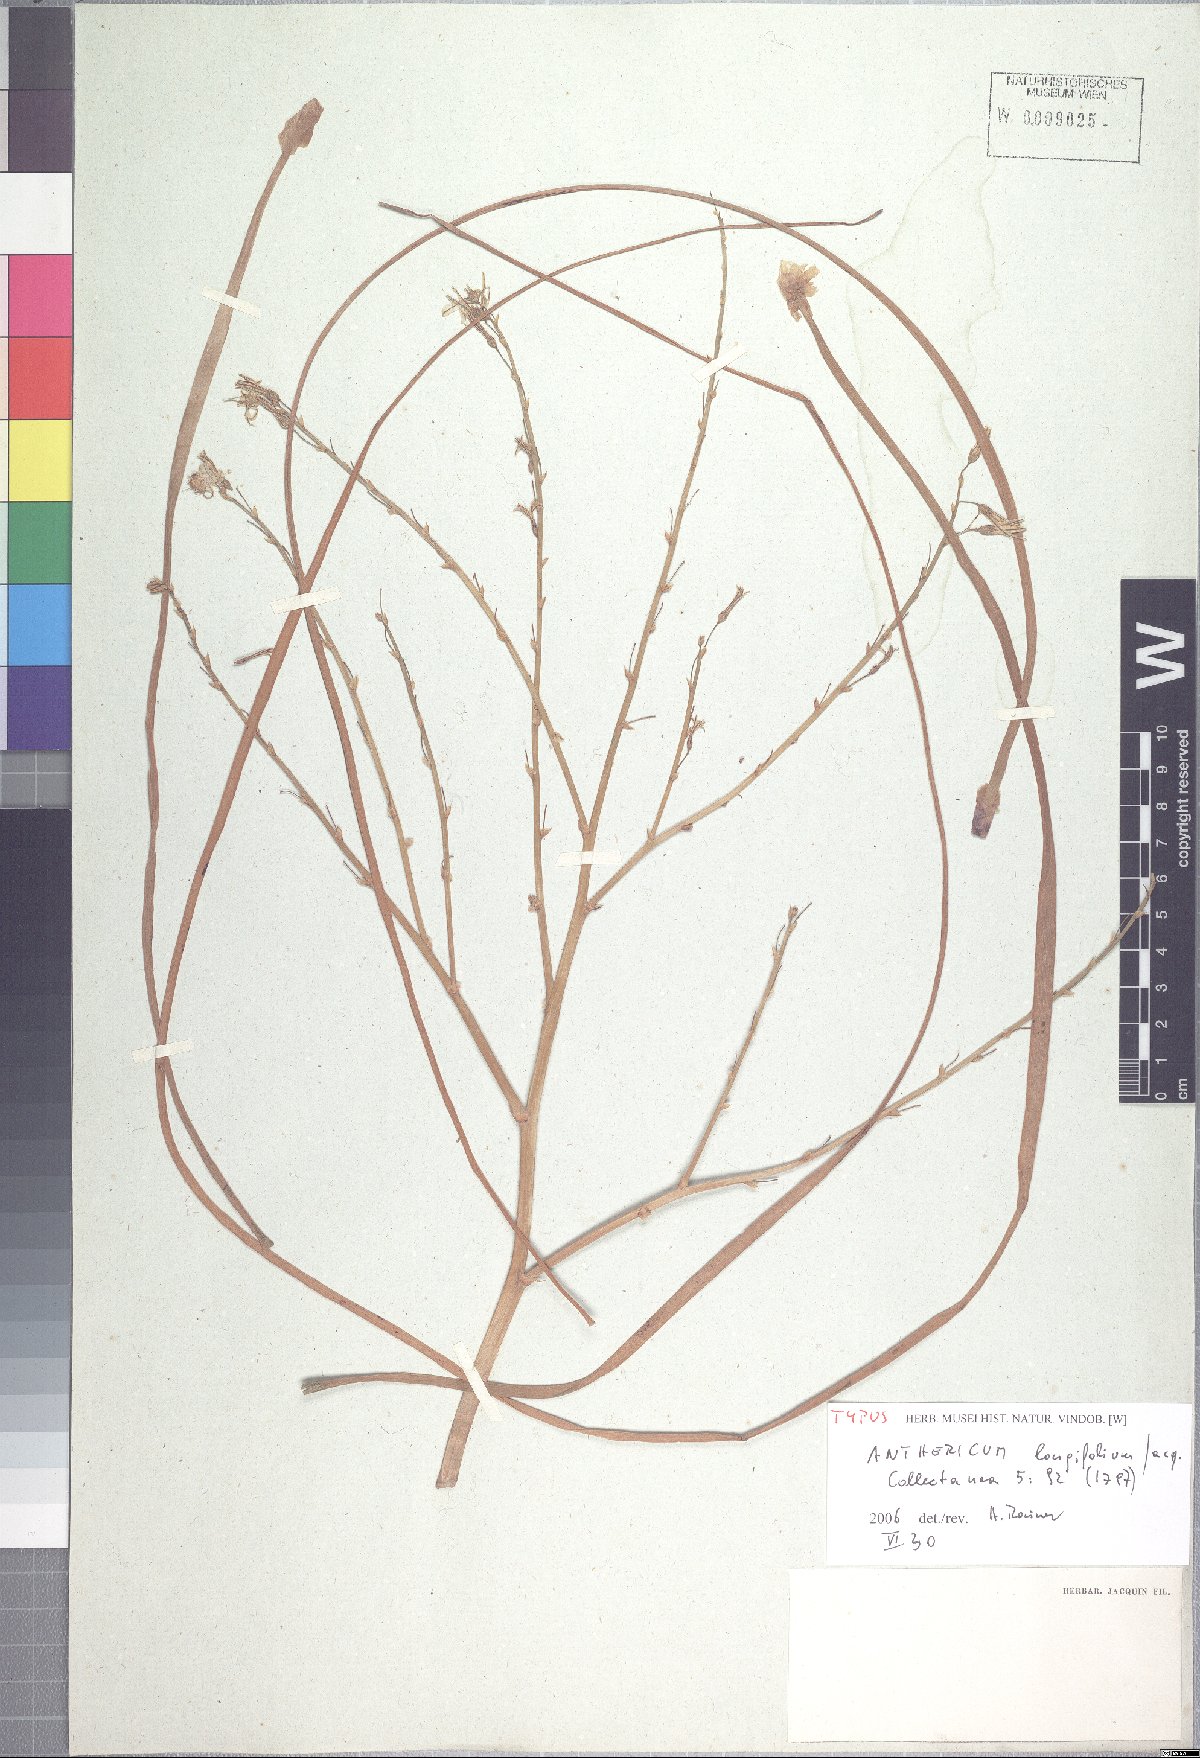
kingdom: Plantae
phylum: Tracheophyta
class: Liliopsida
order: Asparagales
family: Asphodelaceae
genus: Trachyandra
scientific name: Trachyandra ciliata
